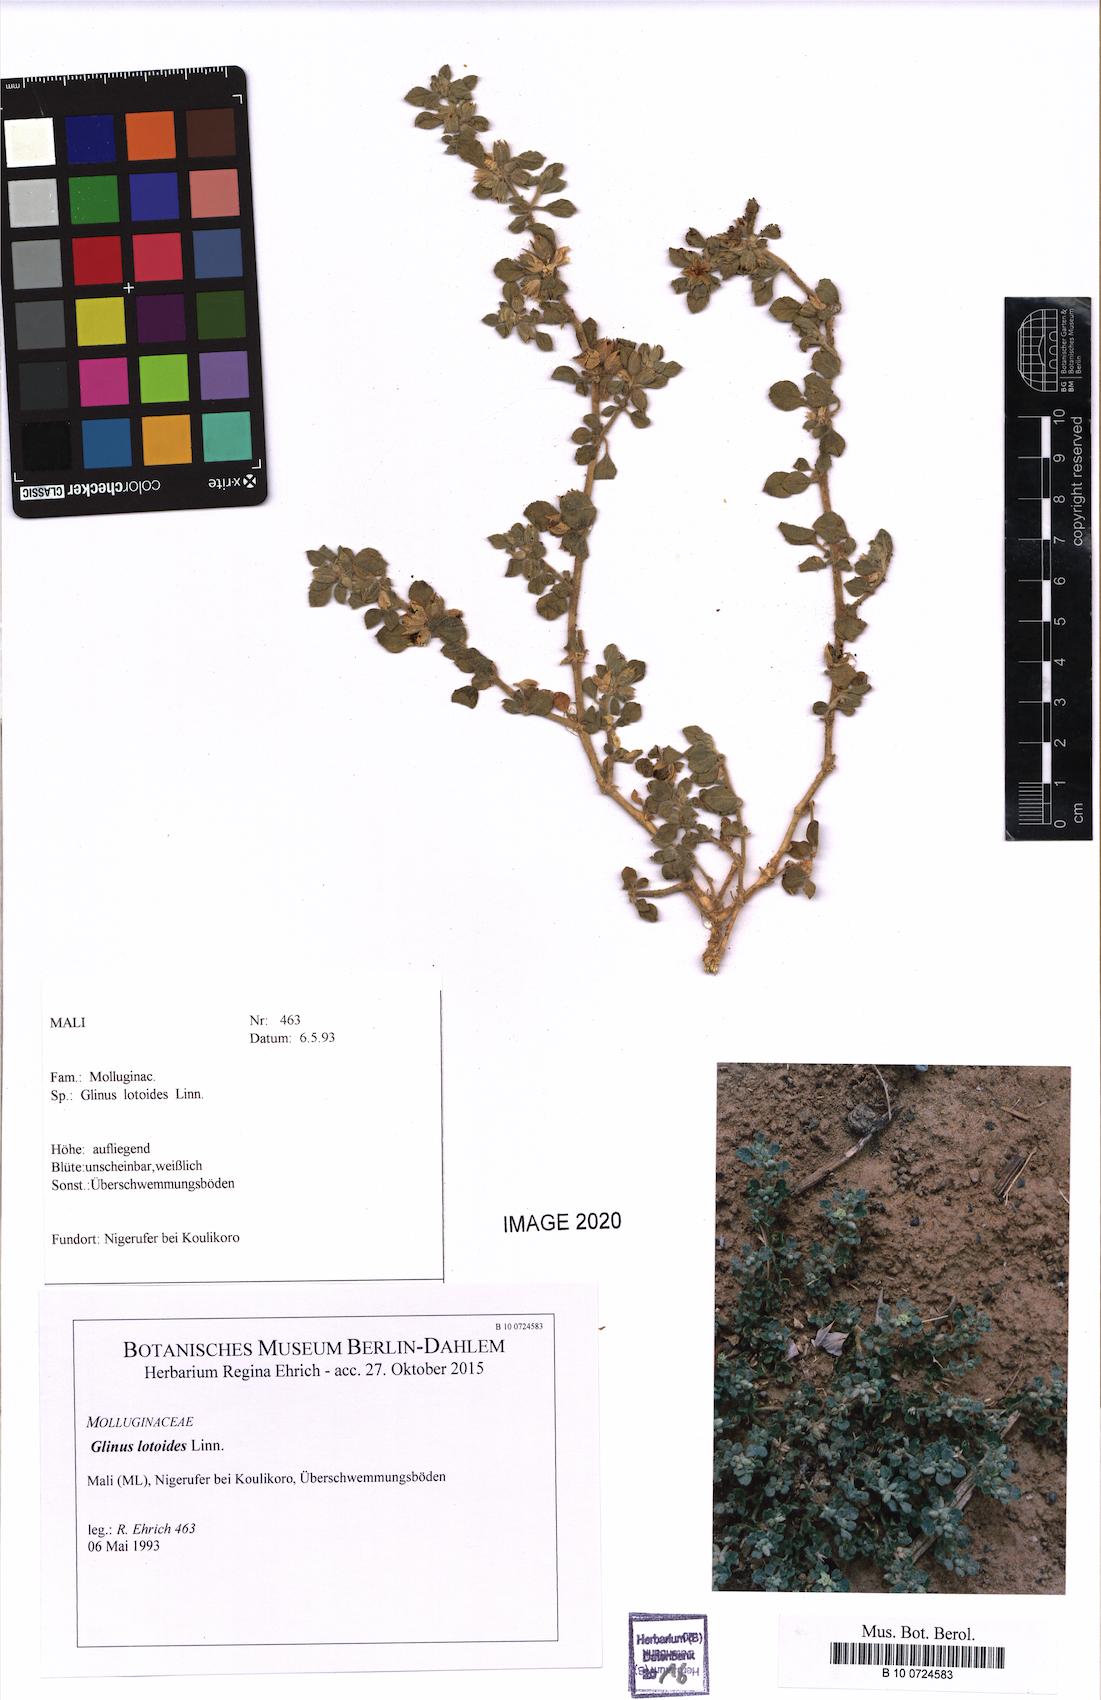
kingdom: Plantae
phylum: Tracheophyta
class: Magnoliopsida
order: Caryophyllales
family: Molluginaceae
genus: Glinus
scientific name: Glinus lotoides
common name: Lotus sweetjuice
